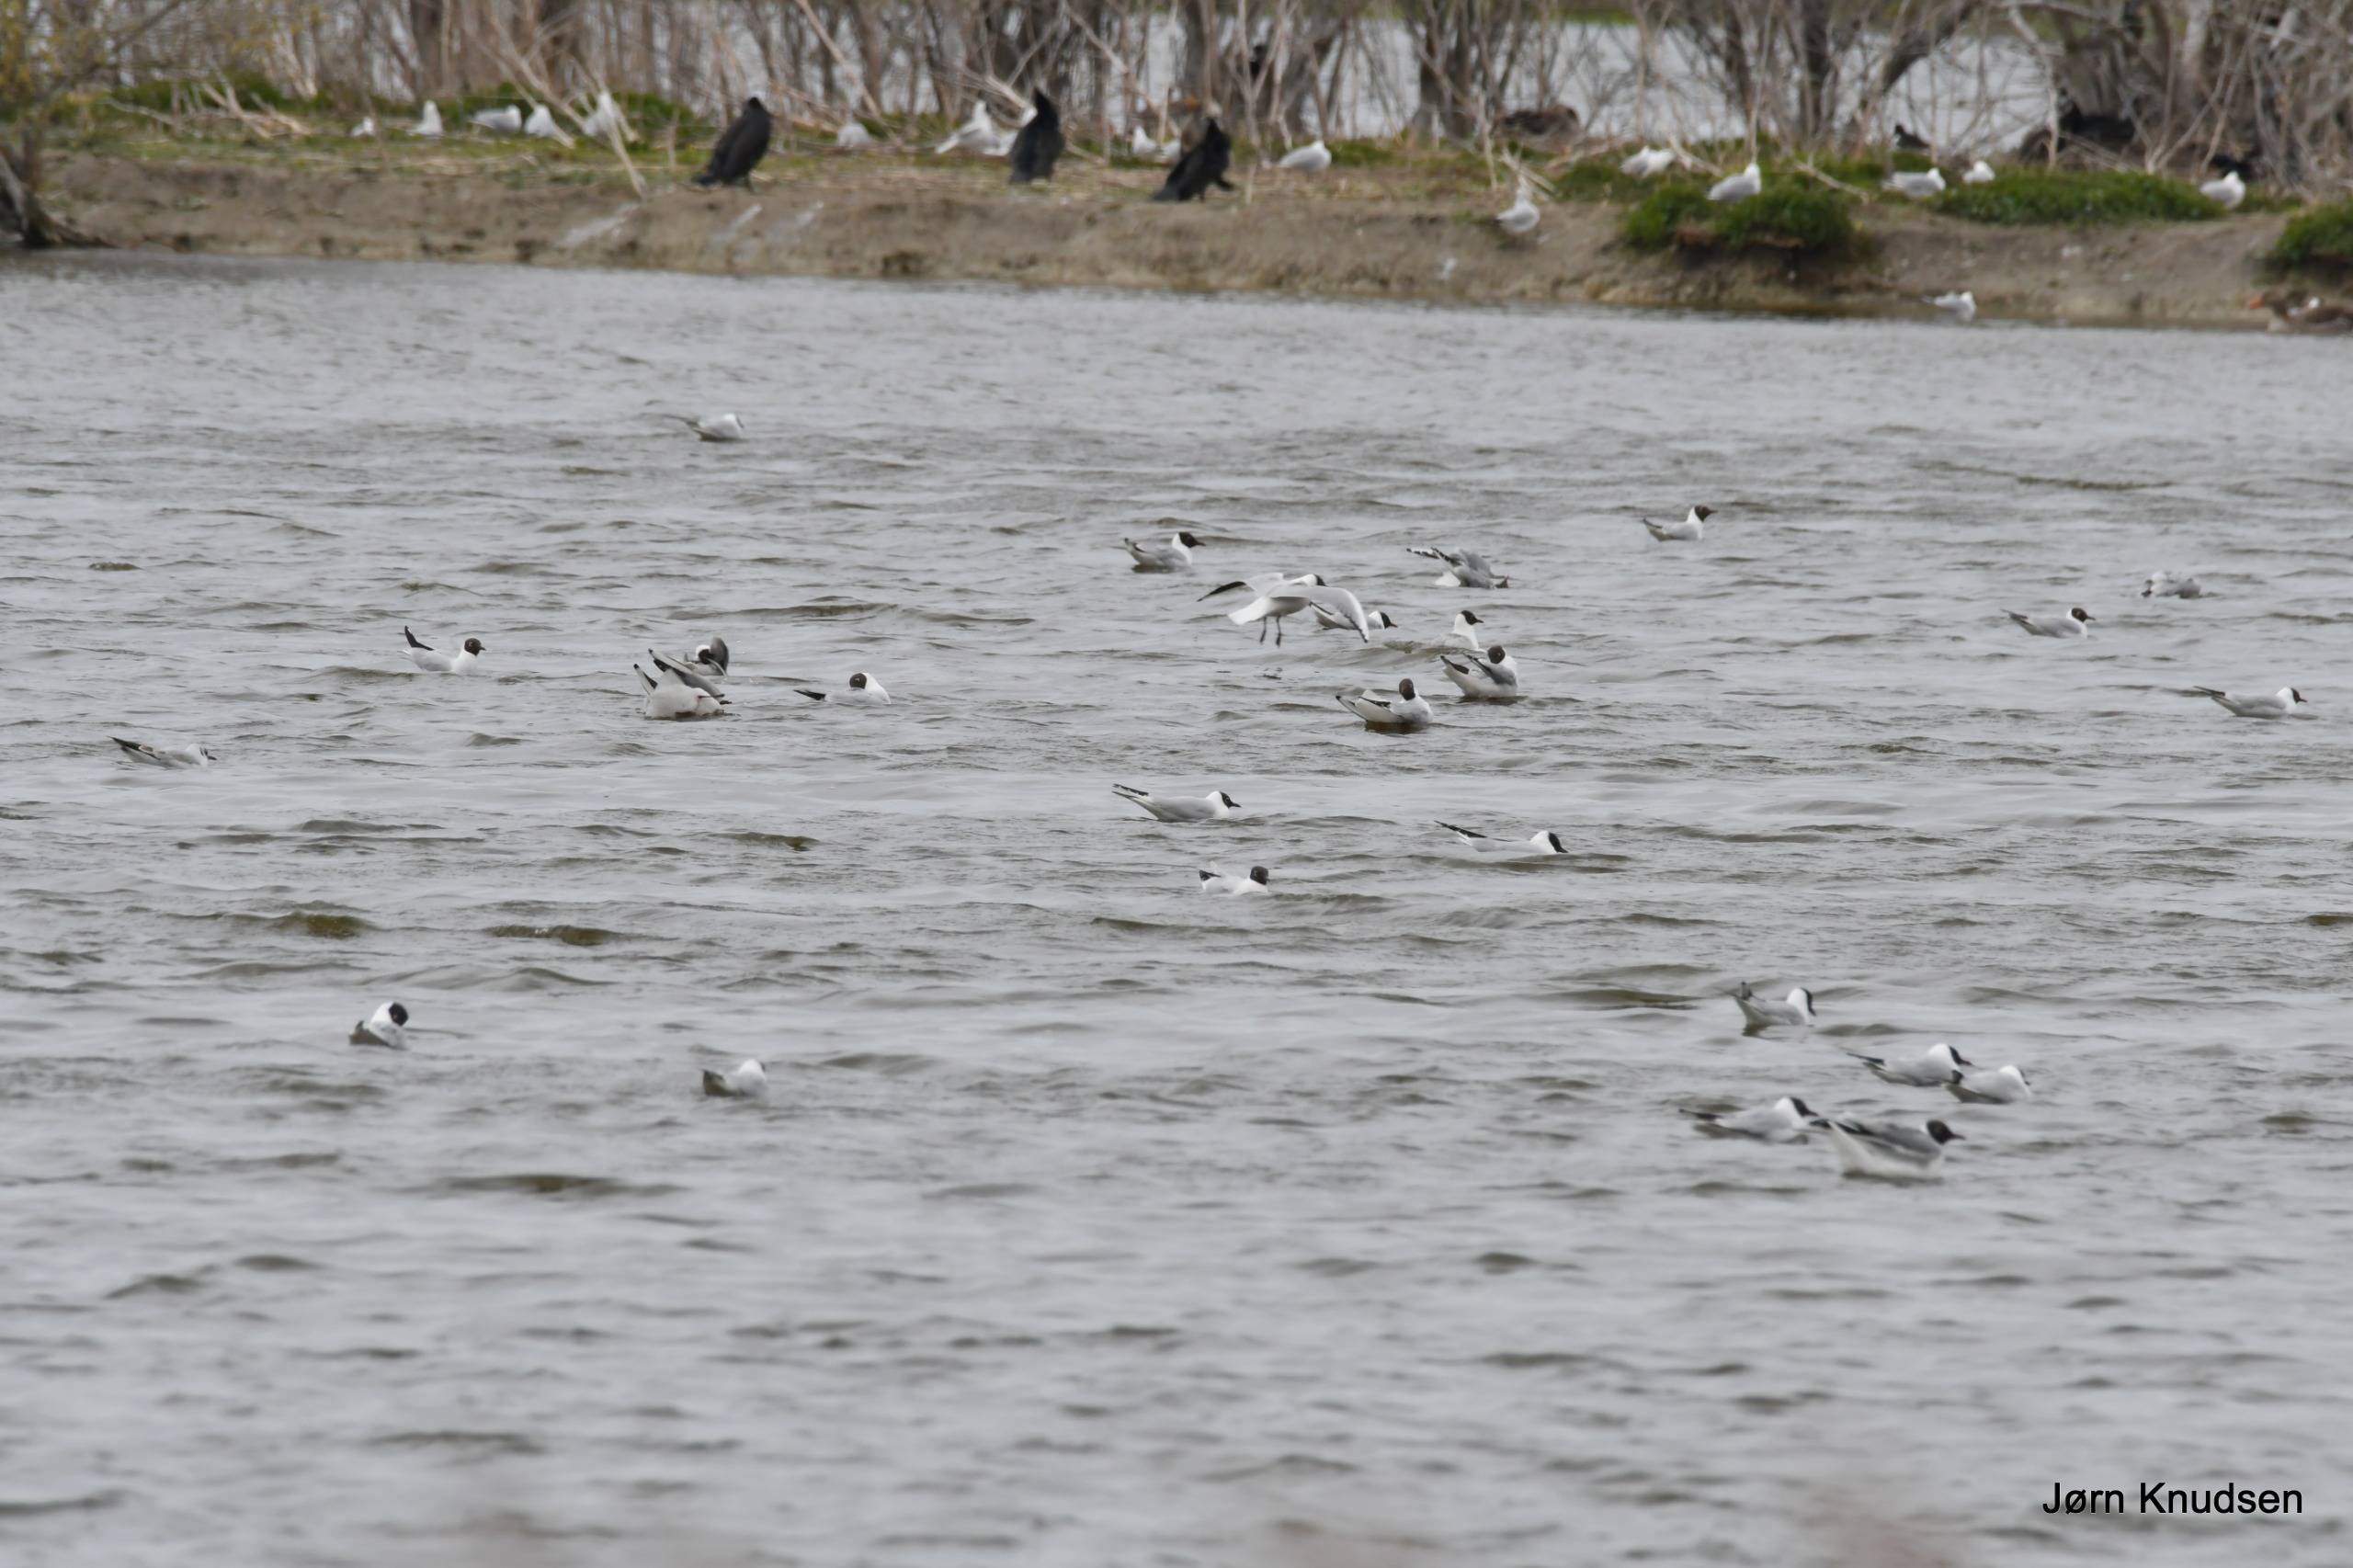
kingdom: Animalia
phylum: Chordata
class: Aves
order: Charadriiformes
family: Laridae
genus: Chroicocephalus
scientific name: Chroicocephalus ridibundus
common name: Hættemåge
